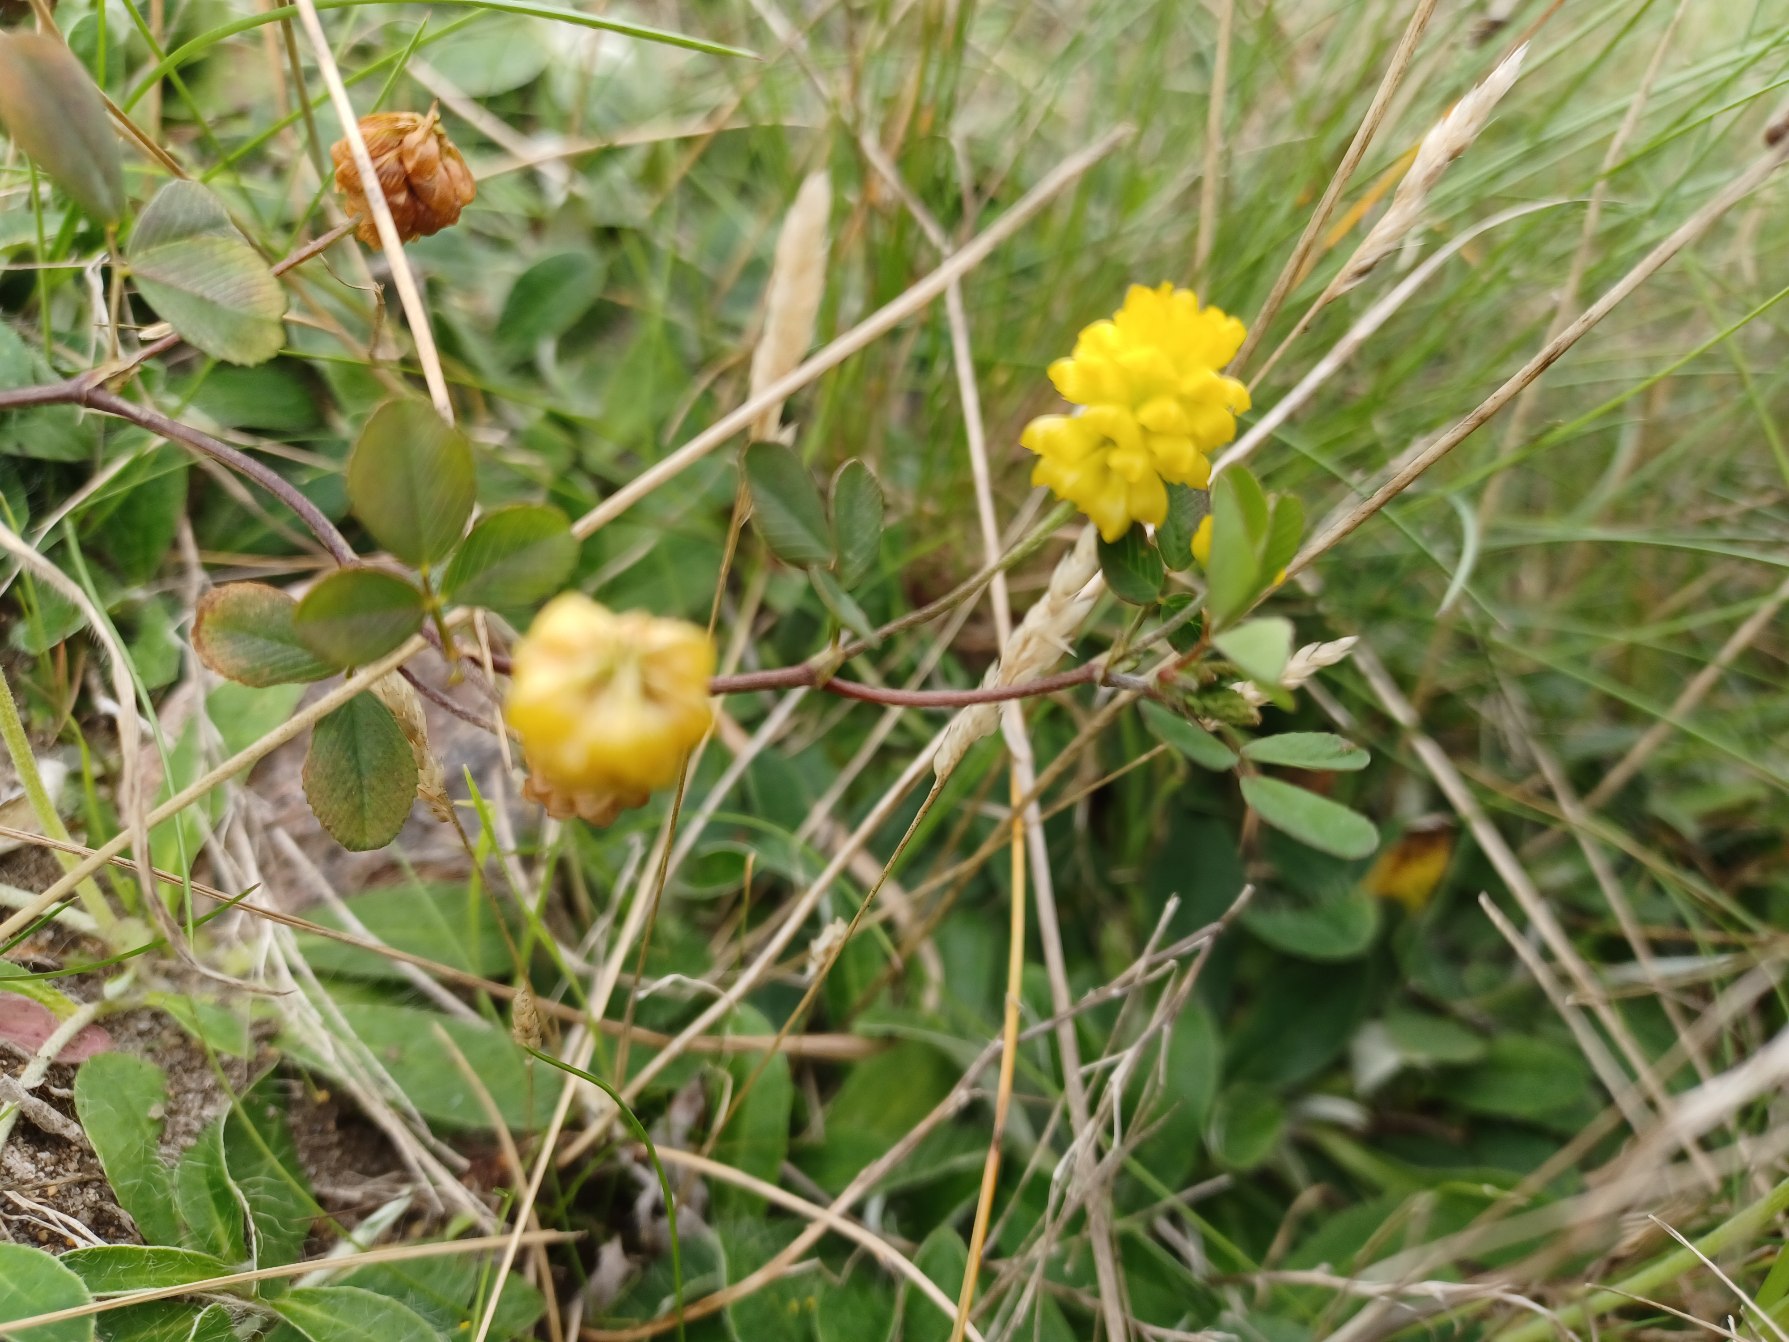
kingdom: Plantae
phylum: Tracheophyta
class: Magnoliopsida
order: Fabales
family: Fabaceae
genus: Trifolium
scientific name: Trifolium campestre
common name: Gul kløver
